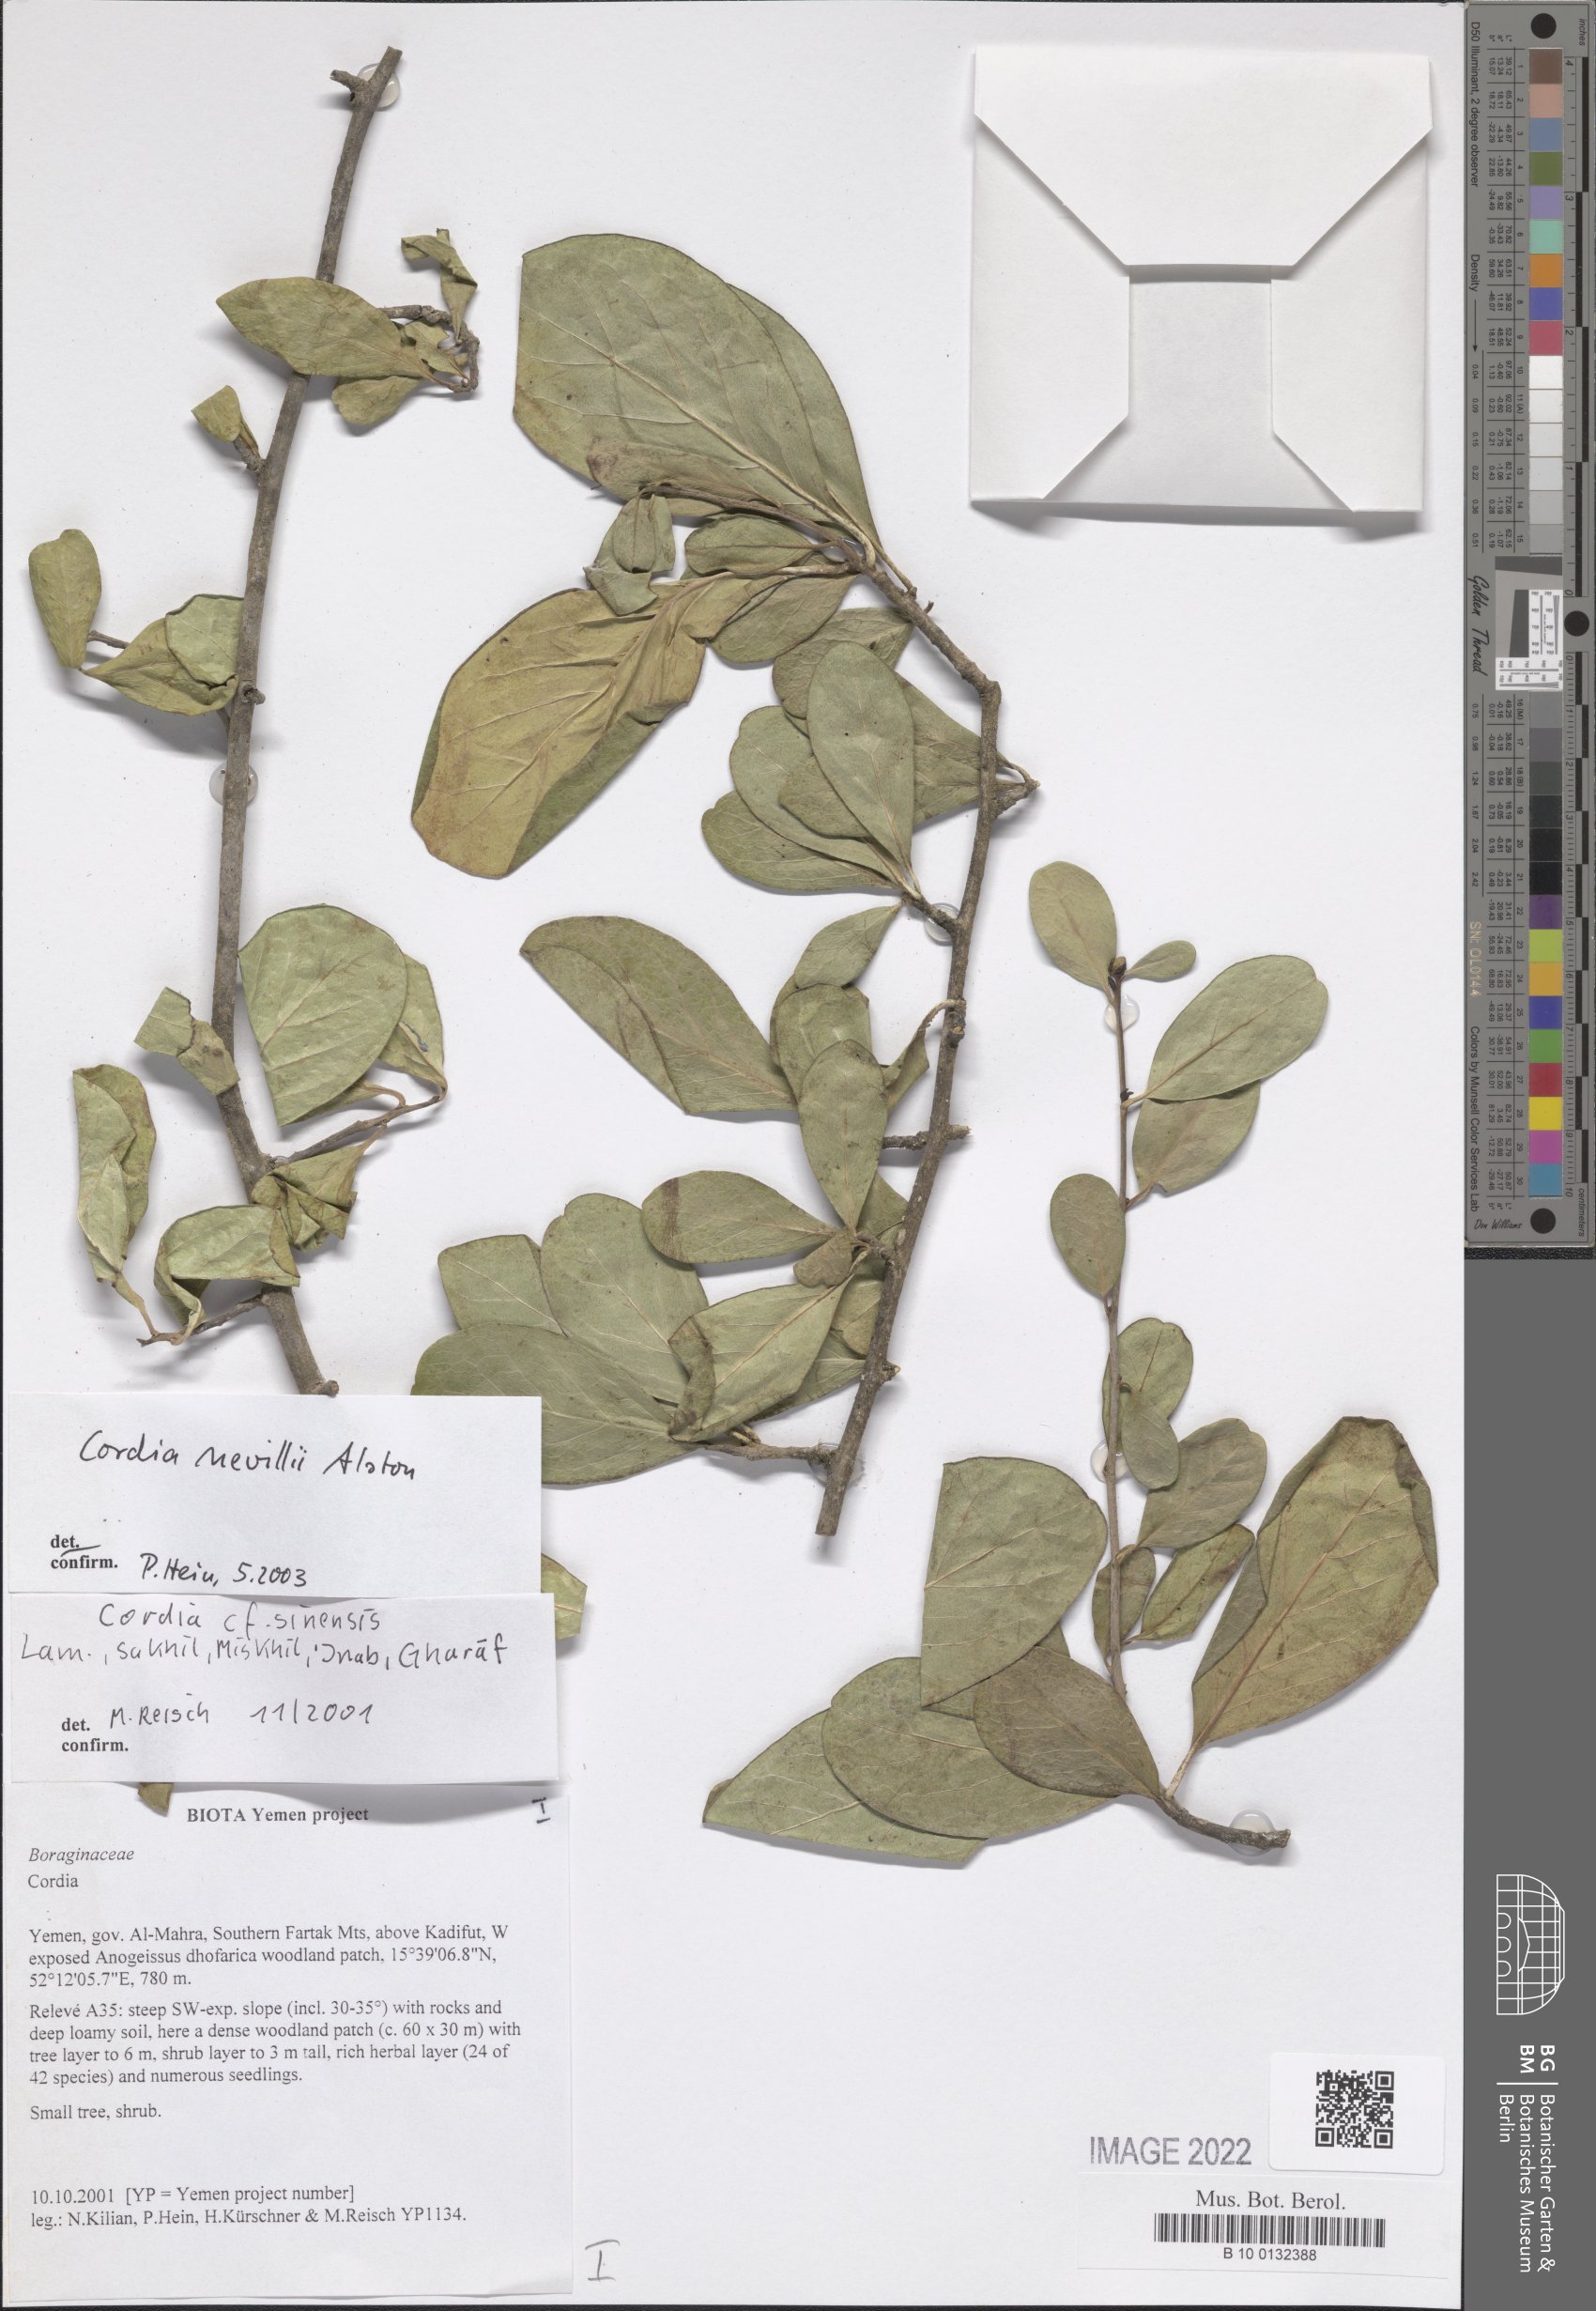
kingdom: Plantae
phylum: Tracheophyta
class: Magnoliopsida
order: Boraginales
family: Cordiaceae
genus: Cordia
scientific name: Cordia quercifolia
